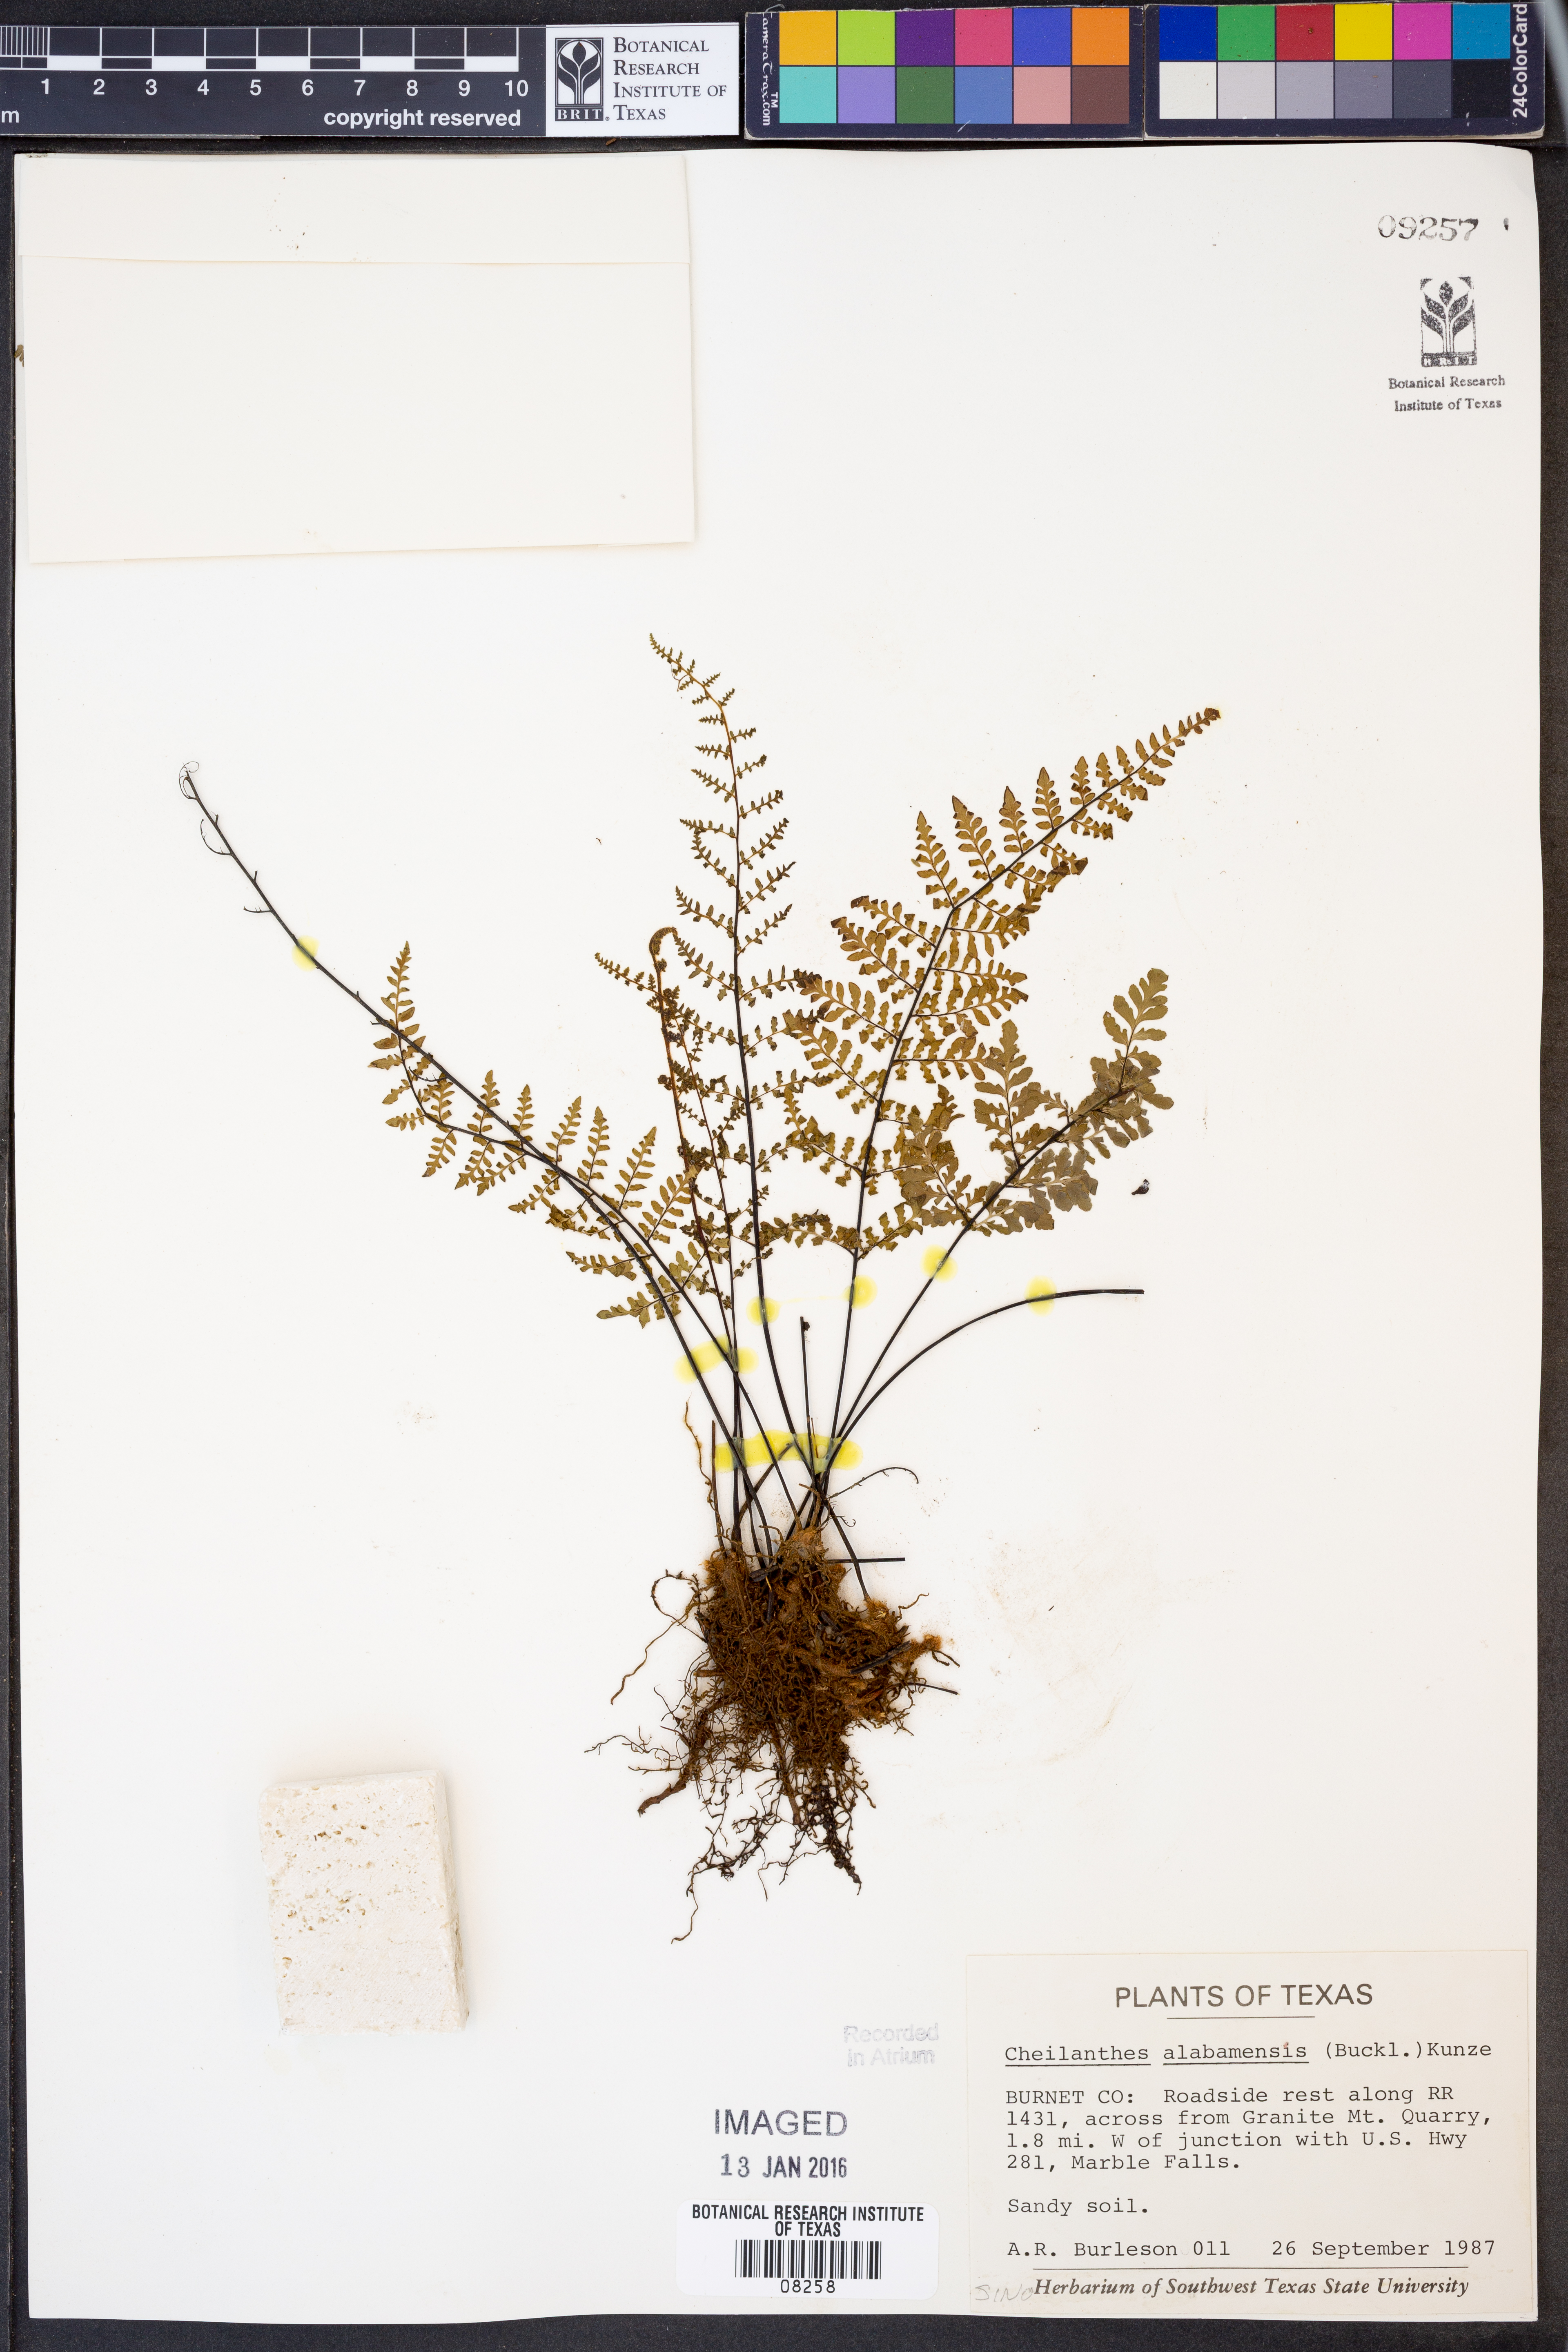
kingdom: Plantae
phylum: Tracheophyta
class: Polypodiopsida
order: Polypodiales
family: Pteridaceae
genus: Myriopteris
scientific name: Myriopteris alabamensis
